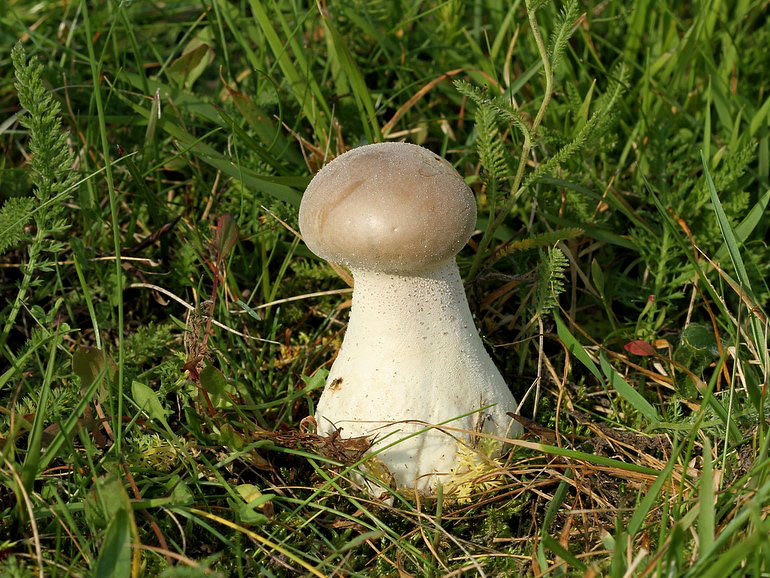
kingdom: Fungi
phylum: Basidiomycota
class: Agaricomycetes
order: Agaricales
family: Lycoperdaceae
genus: Lycoperdon
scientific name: Lycoperdon excipuliforme
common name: højstokket støvbold
